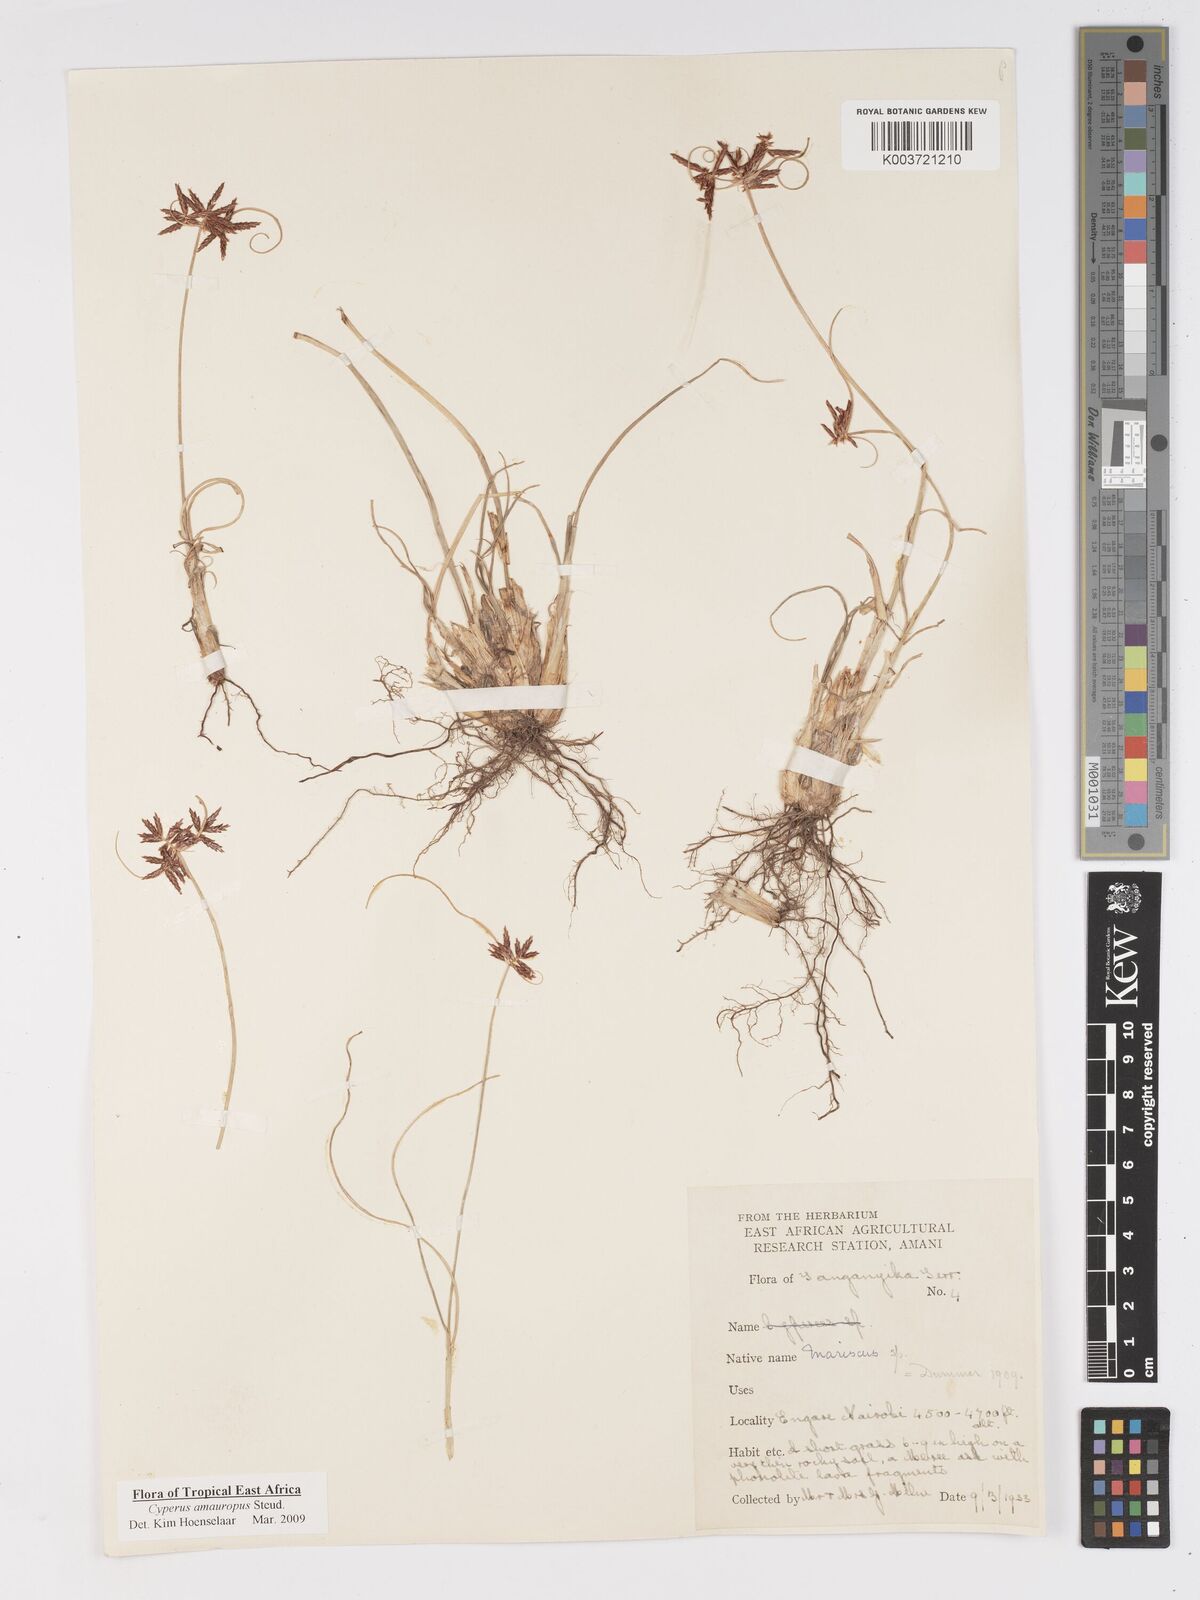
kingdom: Plantae
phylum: Tracheophyta
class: Liliopsida
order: Poales
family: Cyperaceae
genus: Cyperus
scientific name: Cyperus amauropus
